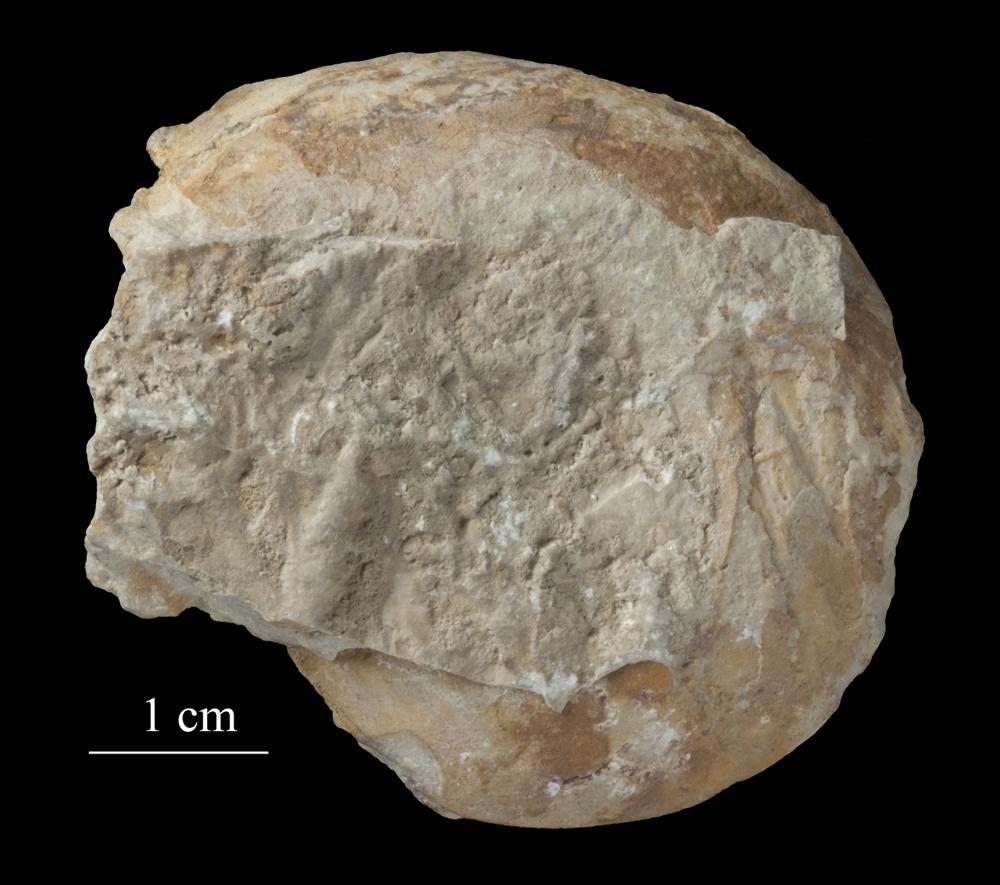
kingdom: Animalia
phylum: Mollusca
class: Gastropoda
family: Euomphalidae
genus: Euomphalus
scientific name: Euomphalus
